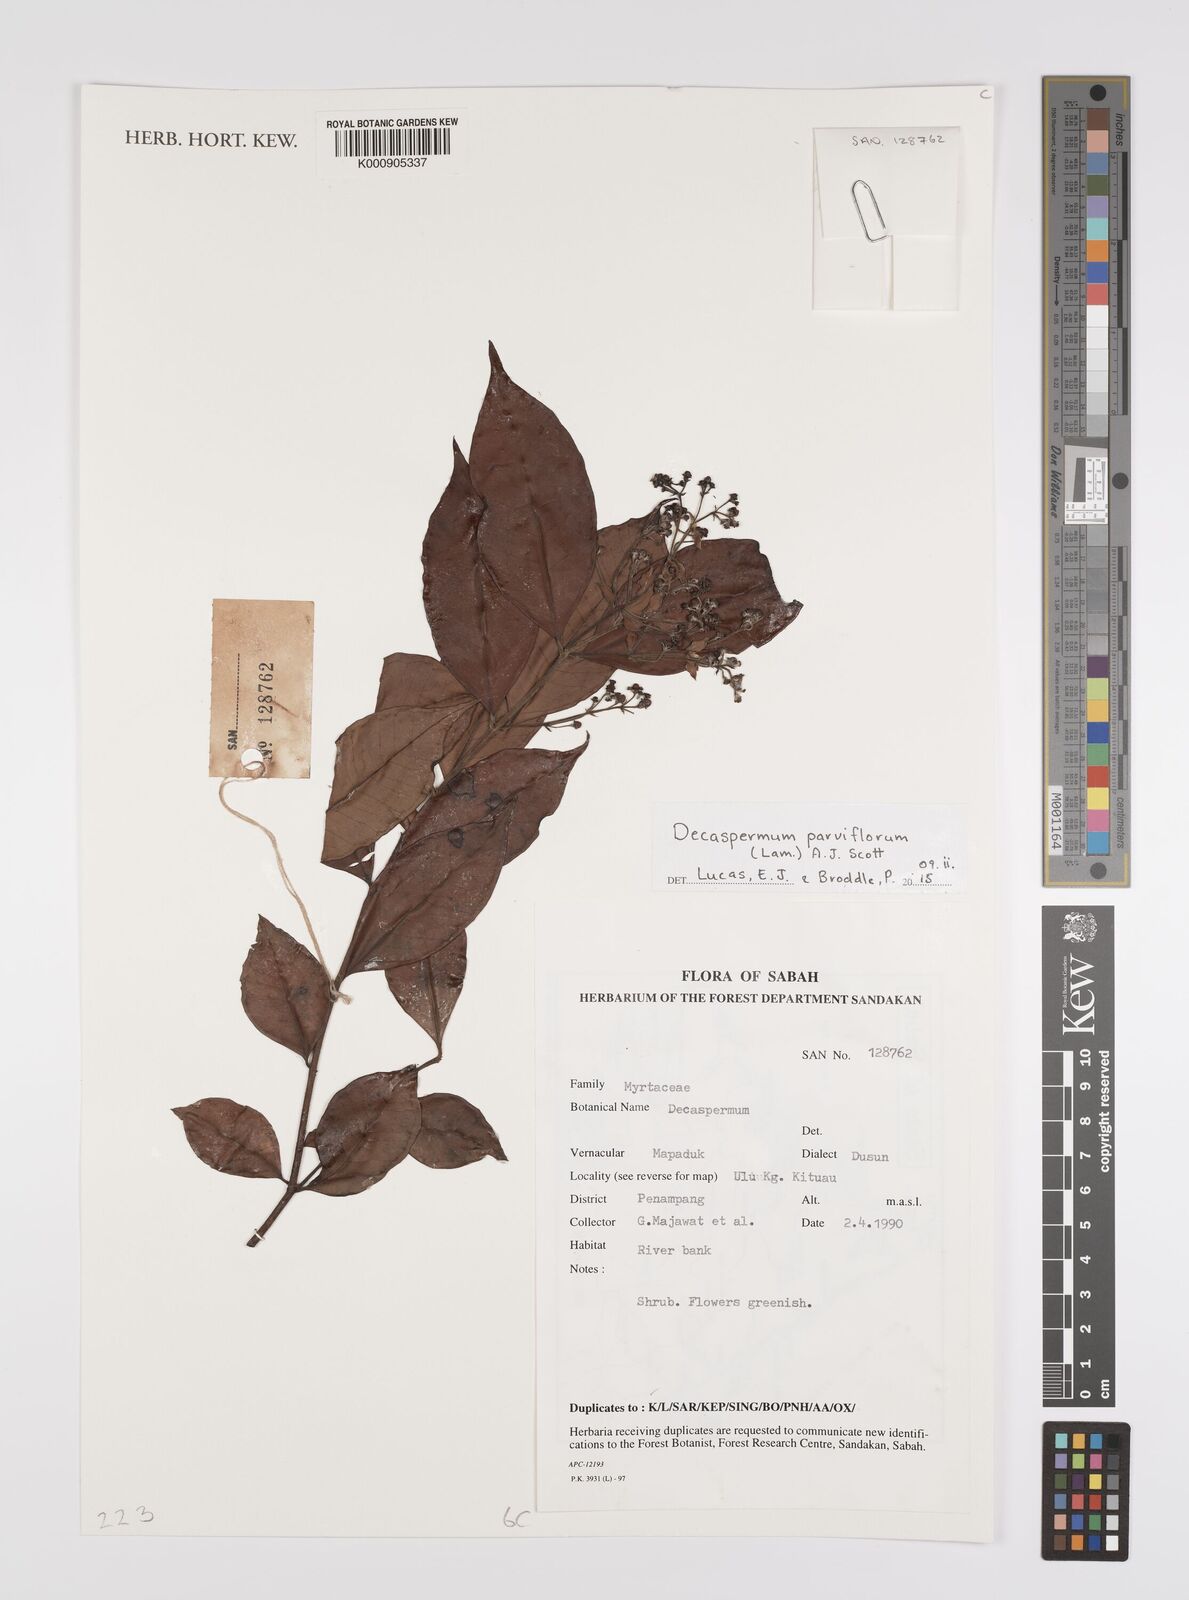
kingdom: Plantae
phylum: Tracheophyta
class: Magnoliopsida
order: Myrtales
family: Myrtaceae
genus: Decaspermum
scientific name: Decaspermum parviflorum
